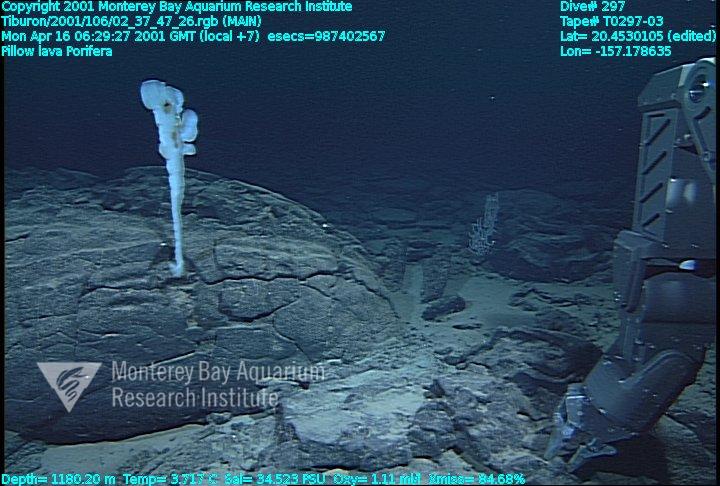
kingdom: Animalia
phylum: Porifera
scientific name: Porifera
